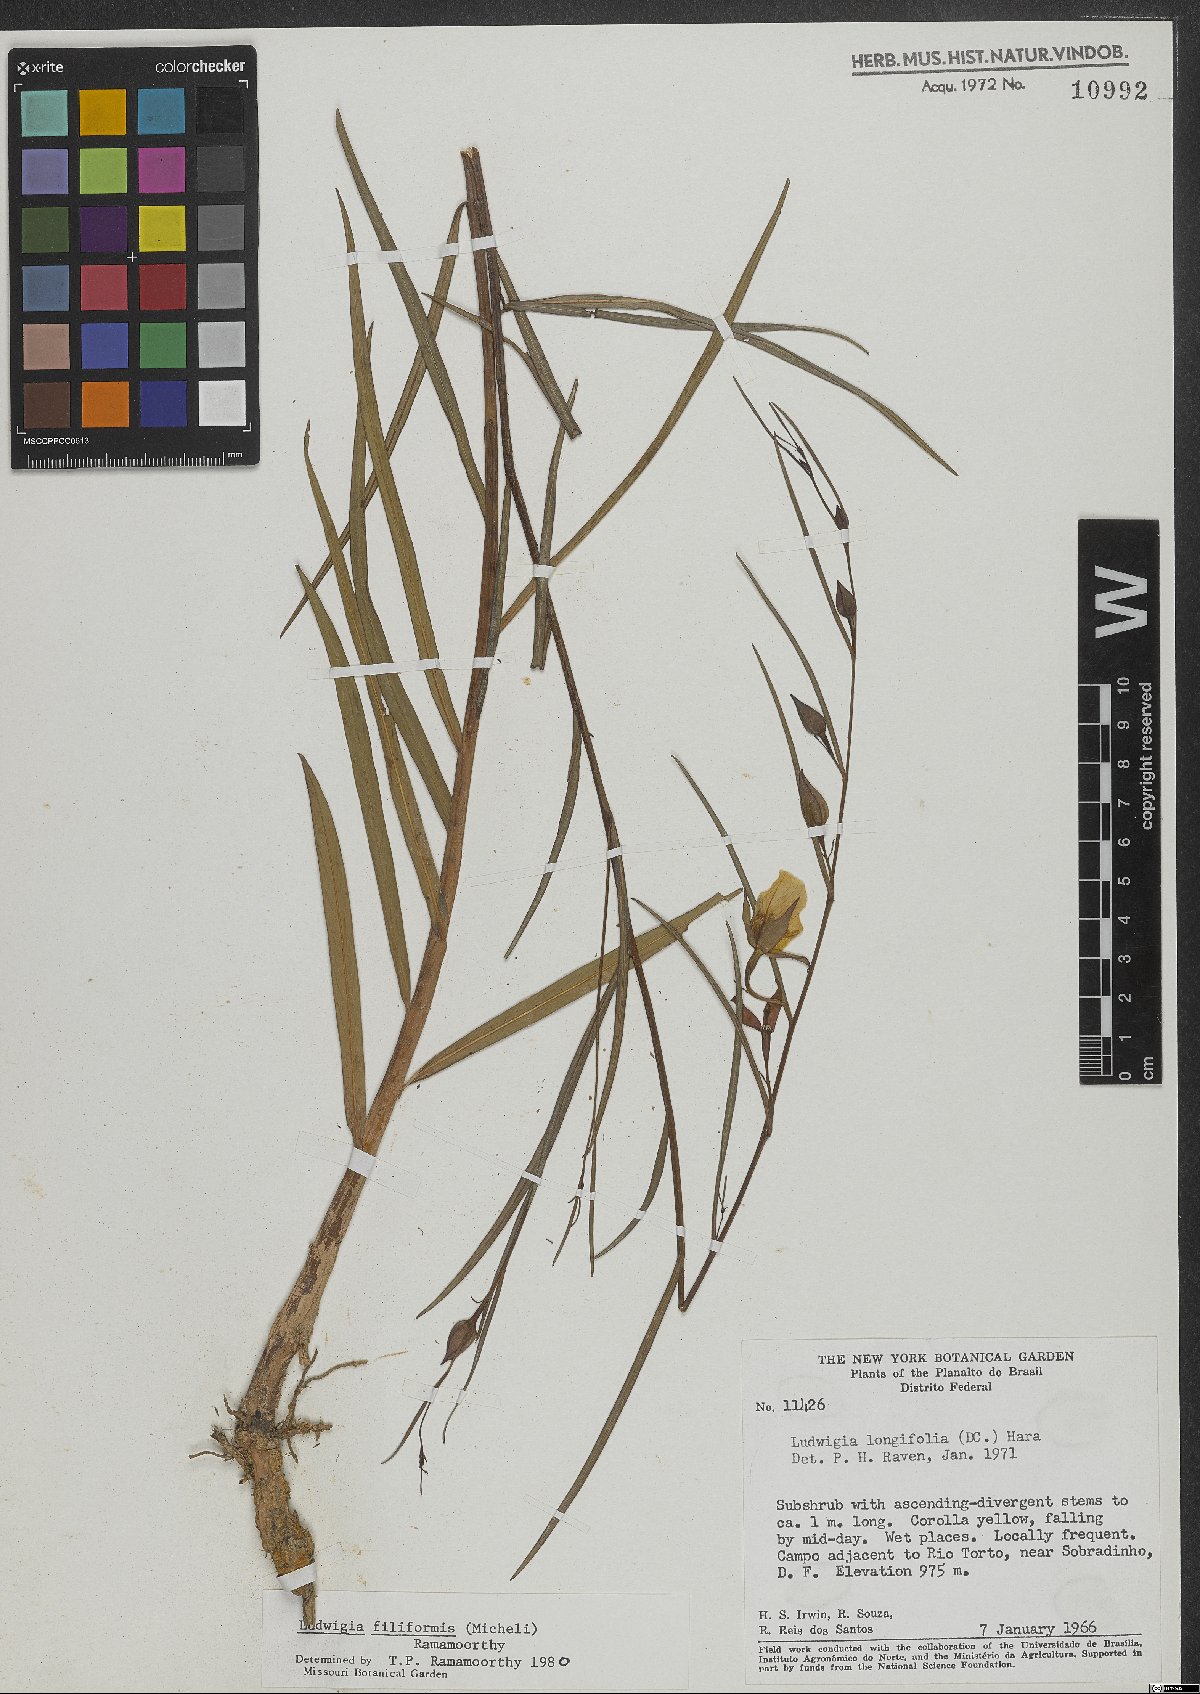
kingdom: Plantae
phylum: Tracheophyta
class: Magnoliopsida
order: Myrtales
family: Onagraceae
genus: Ludwigia
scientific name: Ludwigia filiformis
